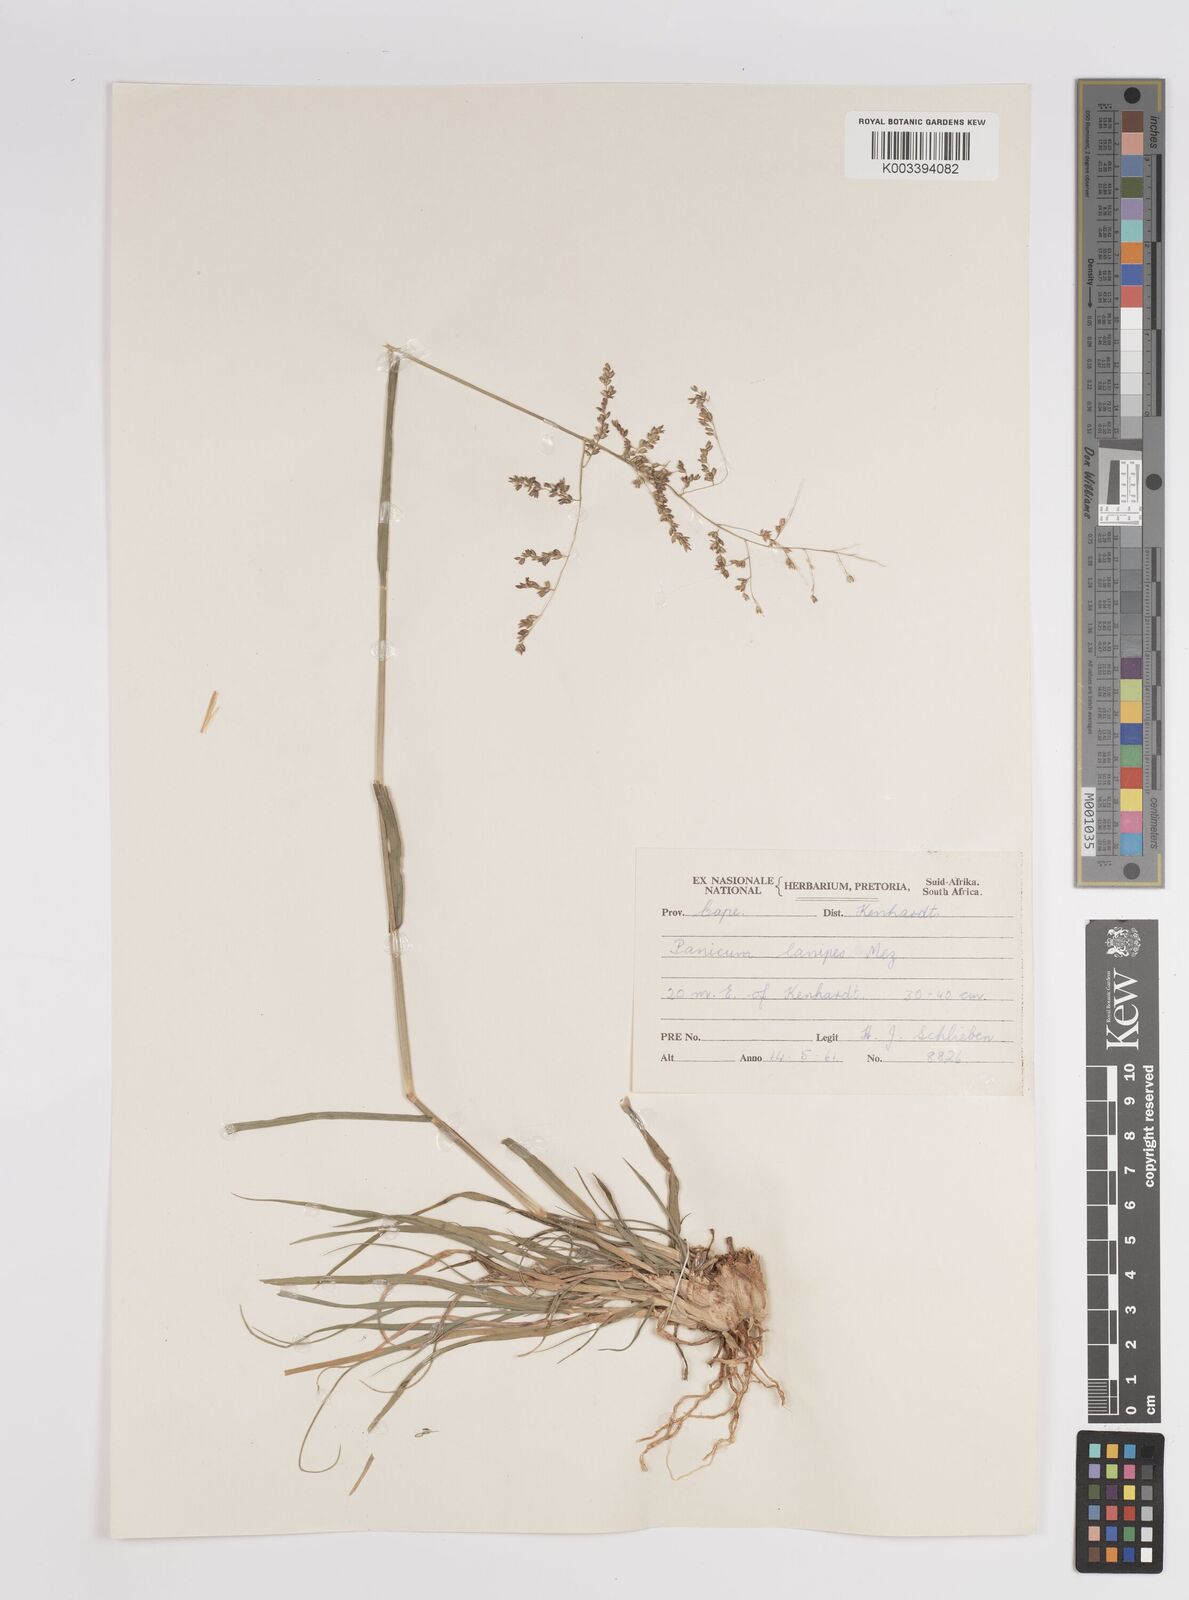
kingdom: Plantae
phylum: Tracheophyta
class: Liliopsida
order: Poales
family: Poaceae
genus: Panicum
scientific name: Panicum lanipes
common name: Wolvoet panicum
